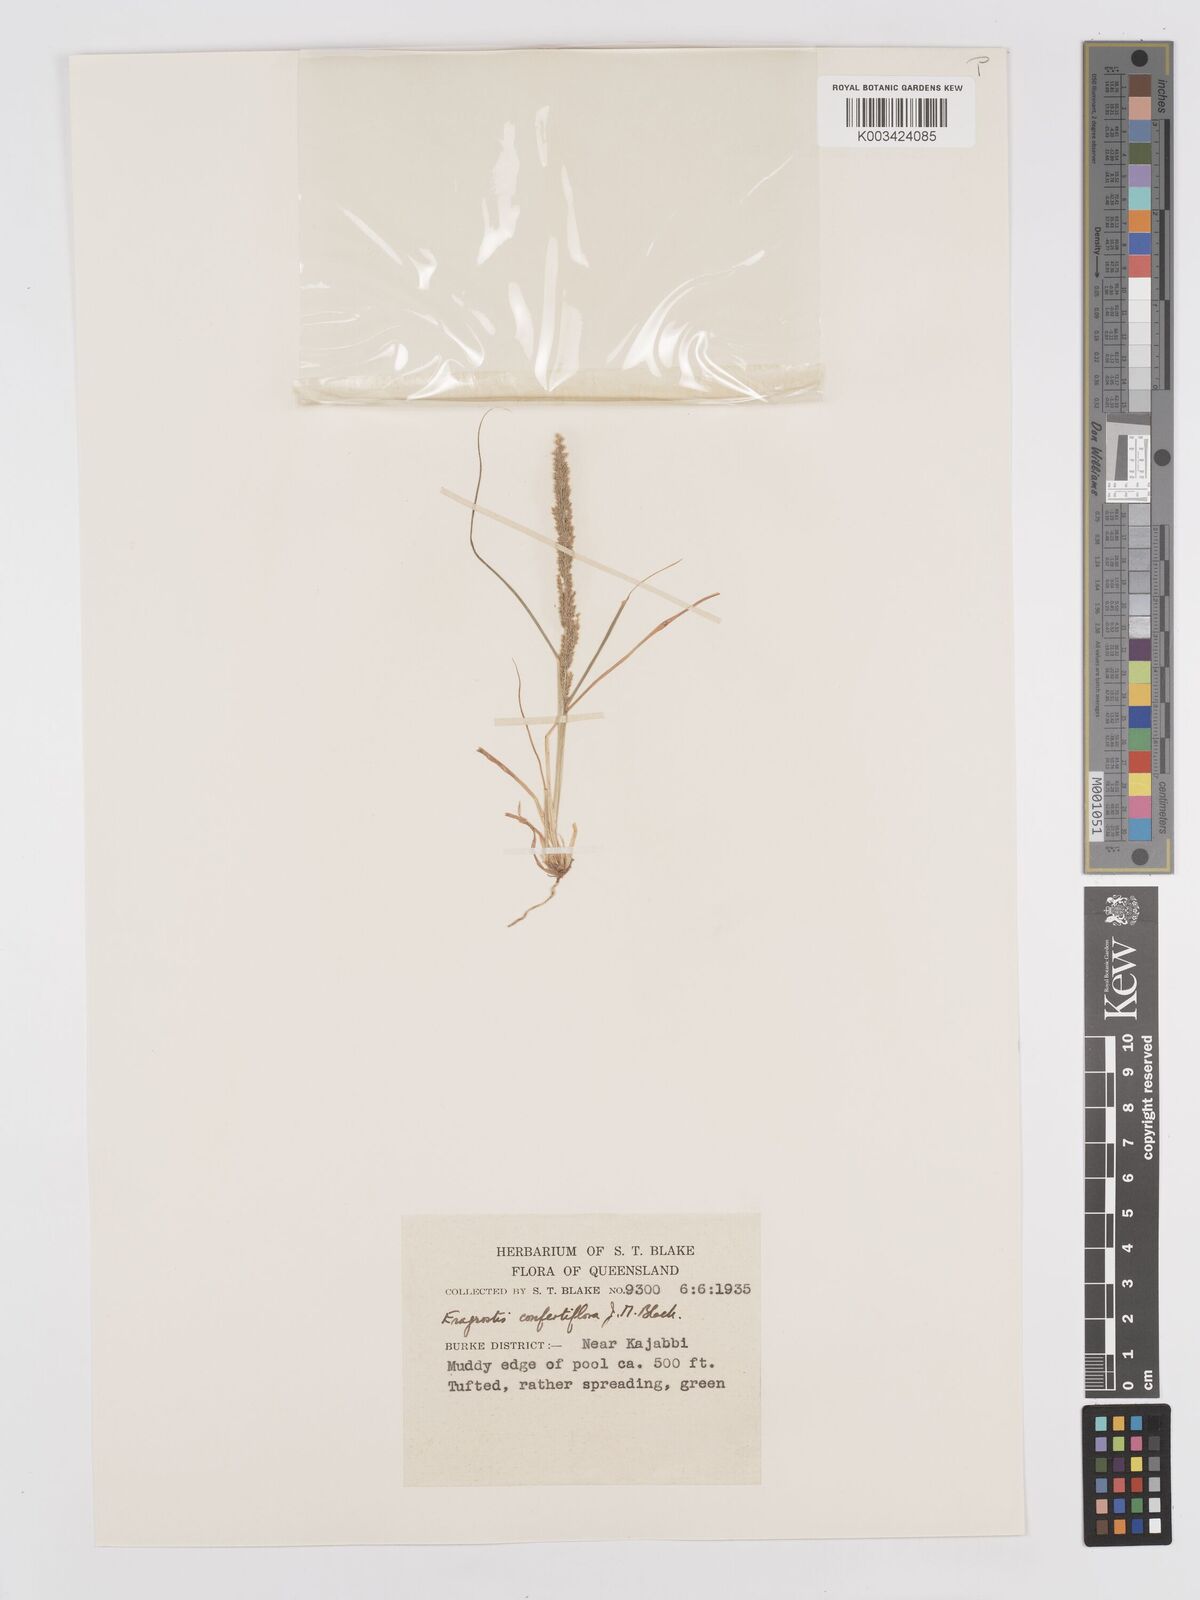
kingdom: Plantae
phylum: Tracheophyta
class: Liliopsida
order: Poales
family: Poaceae
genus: Eragrostis
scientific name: Eragrostis confertiflora
